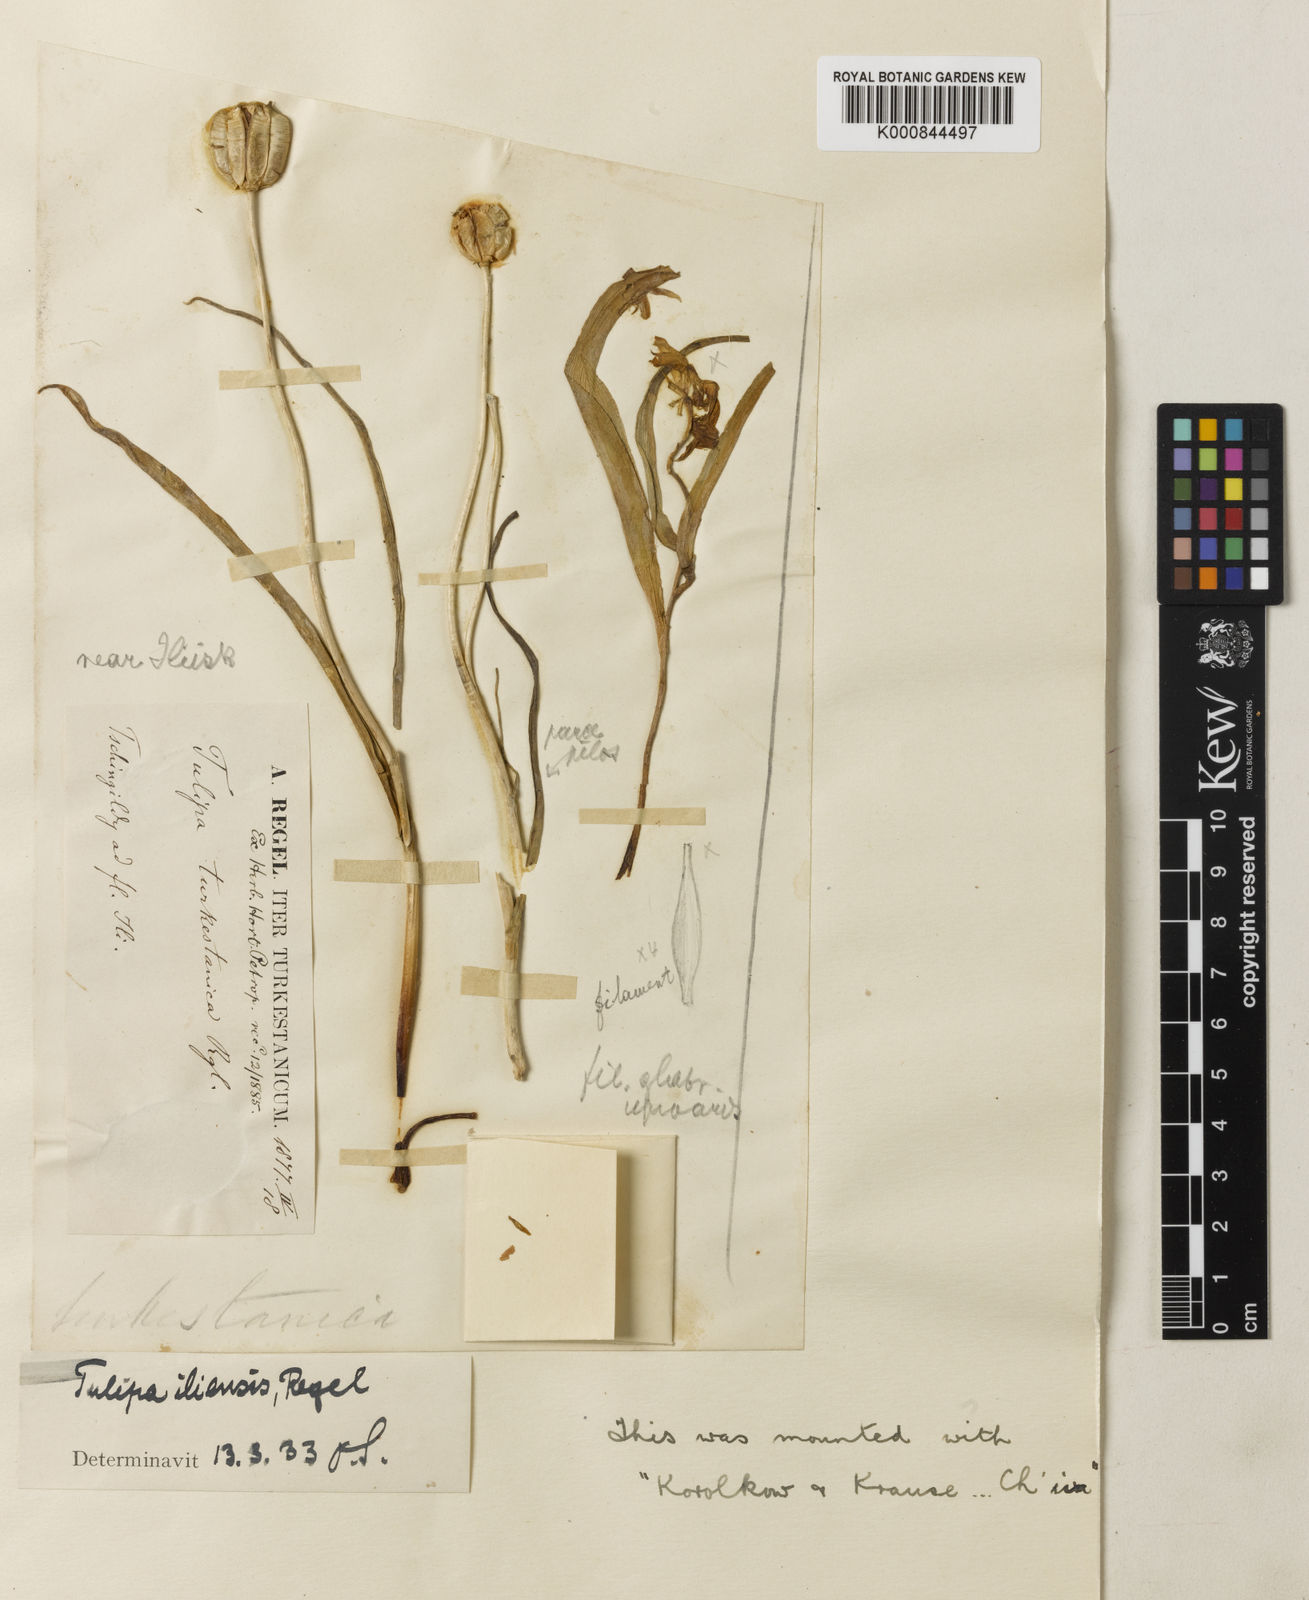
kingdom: Plantae
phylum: Tracheophyta
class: Liliopsida
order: Liliales
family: Liliaceae
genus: Tulipa
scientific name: Tulipa iliensis
